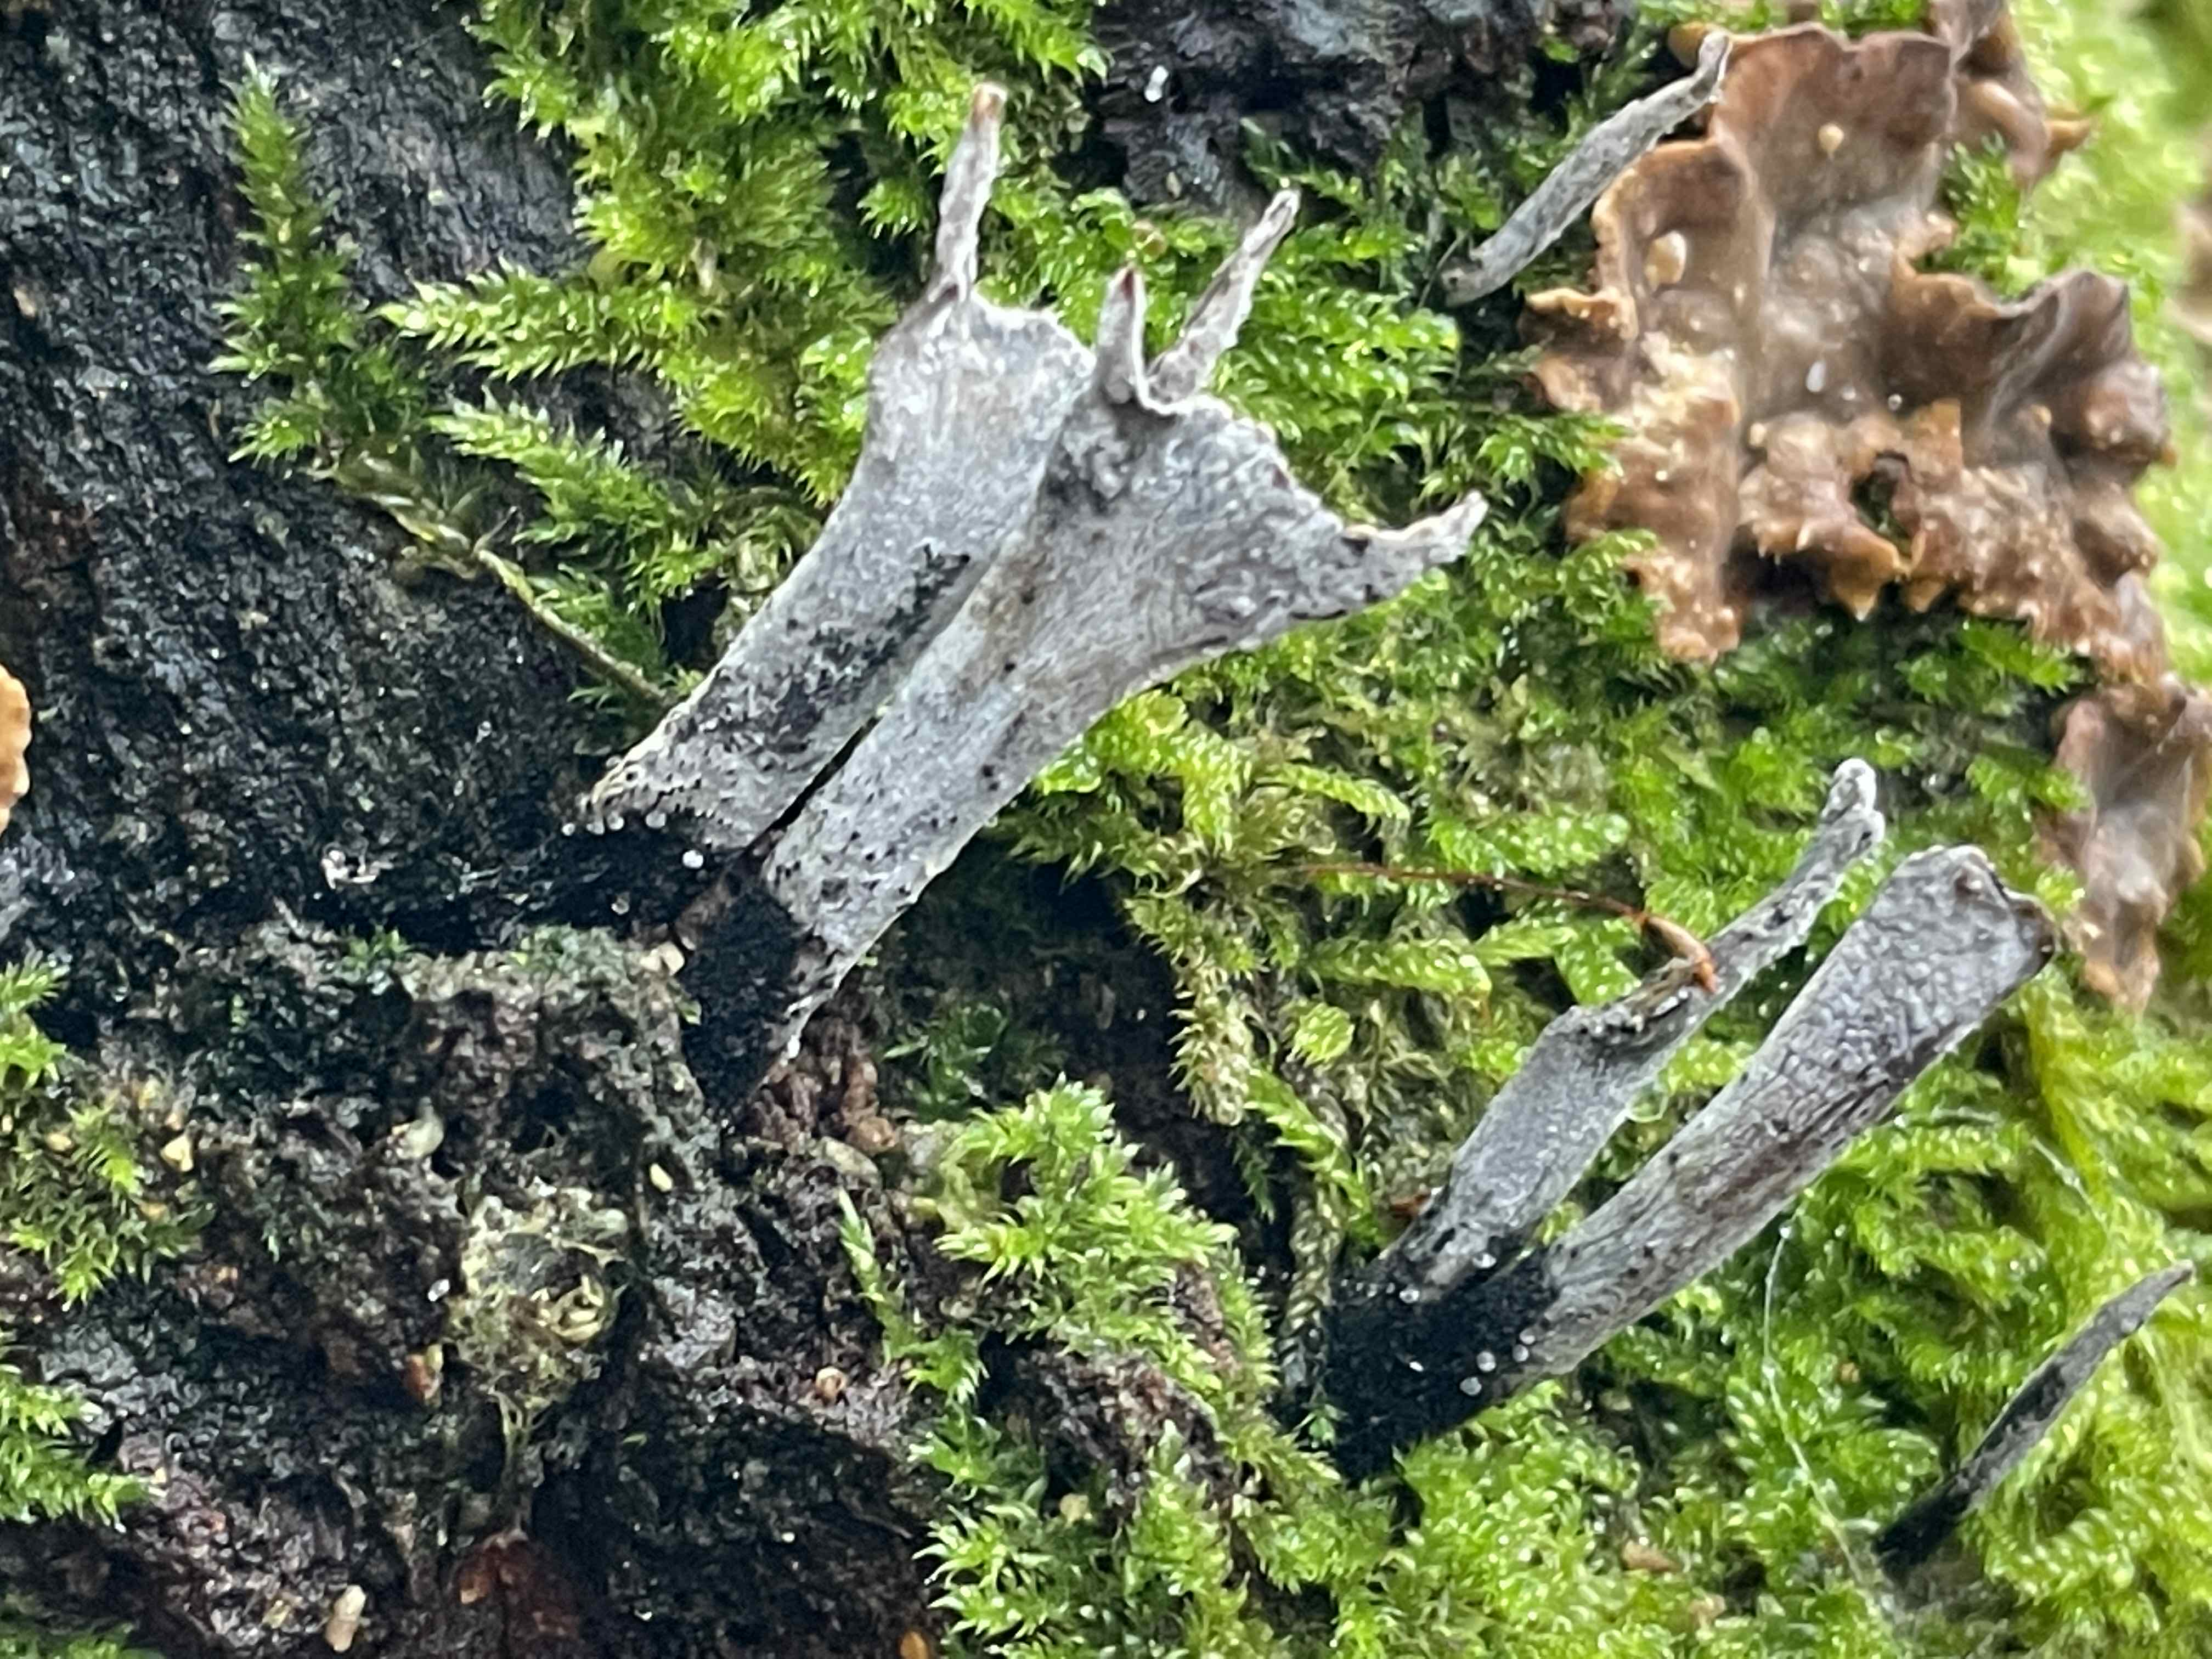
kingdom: Fungi
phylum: Ascomycota
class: Sordariomycetes
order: Xylariales
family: Xylariaceae
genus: Xylaria
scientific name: Xylaria hypoxylon
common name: grenet stødsvamp
